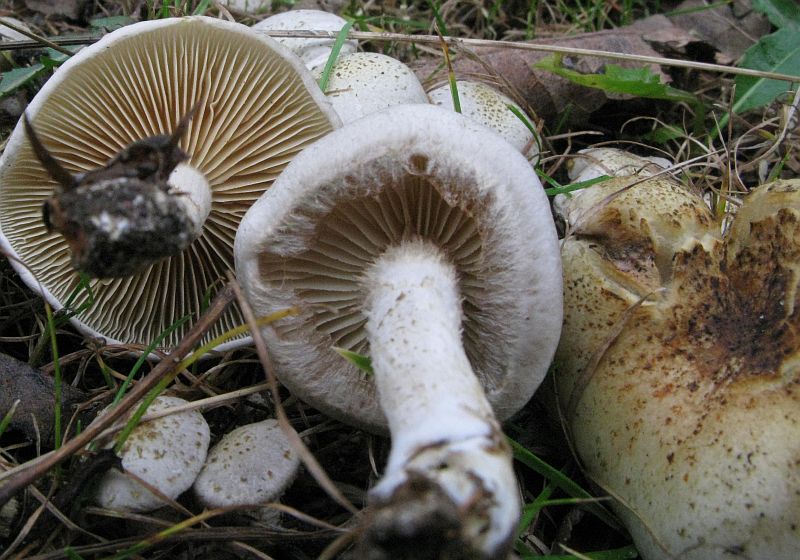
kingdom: Fungi
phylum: Basidiomycota
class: Agaricomycetes
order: Agaricales
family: Strophariaceae
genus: Pholiota
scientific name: Pholiota gummosa
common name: grøngul skælhat
